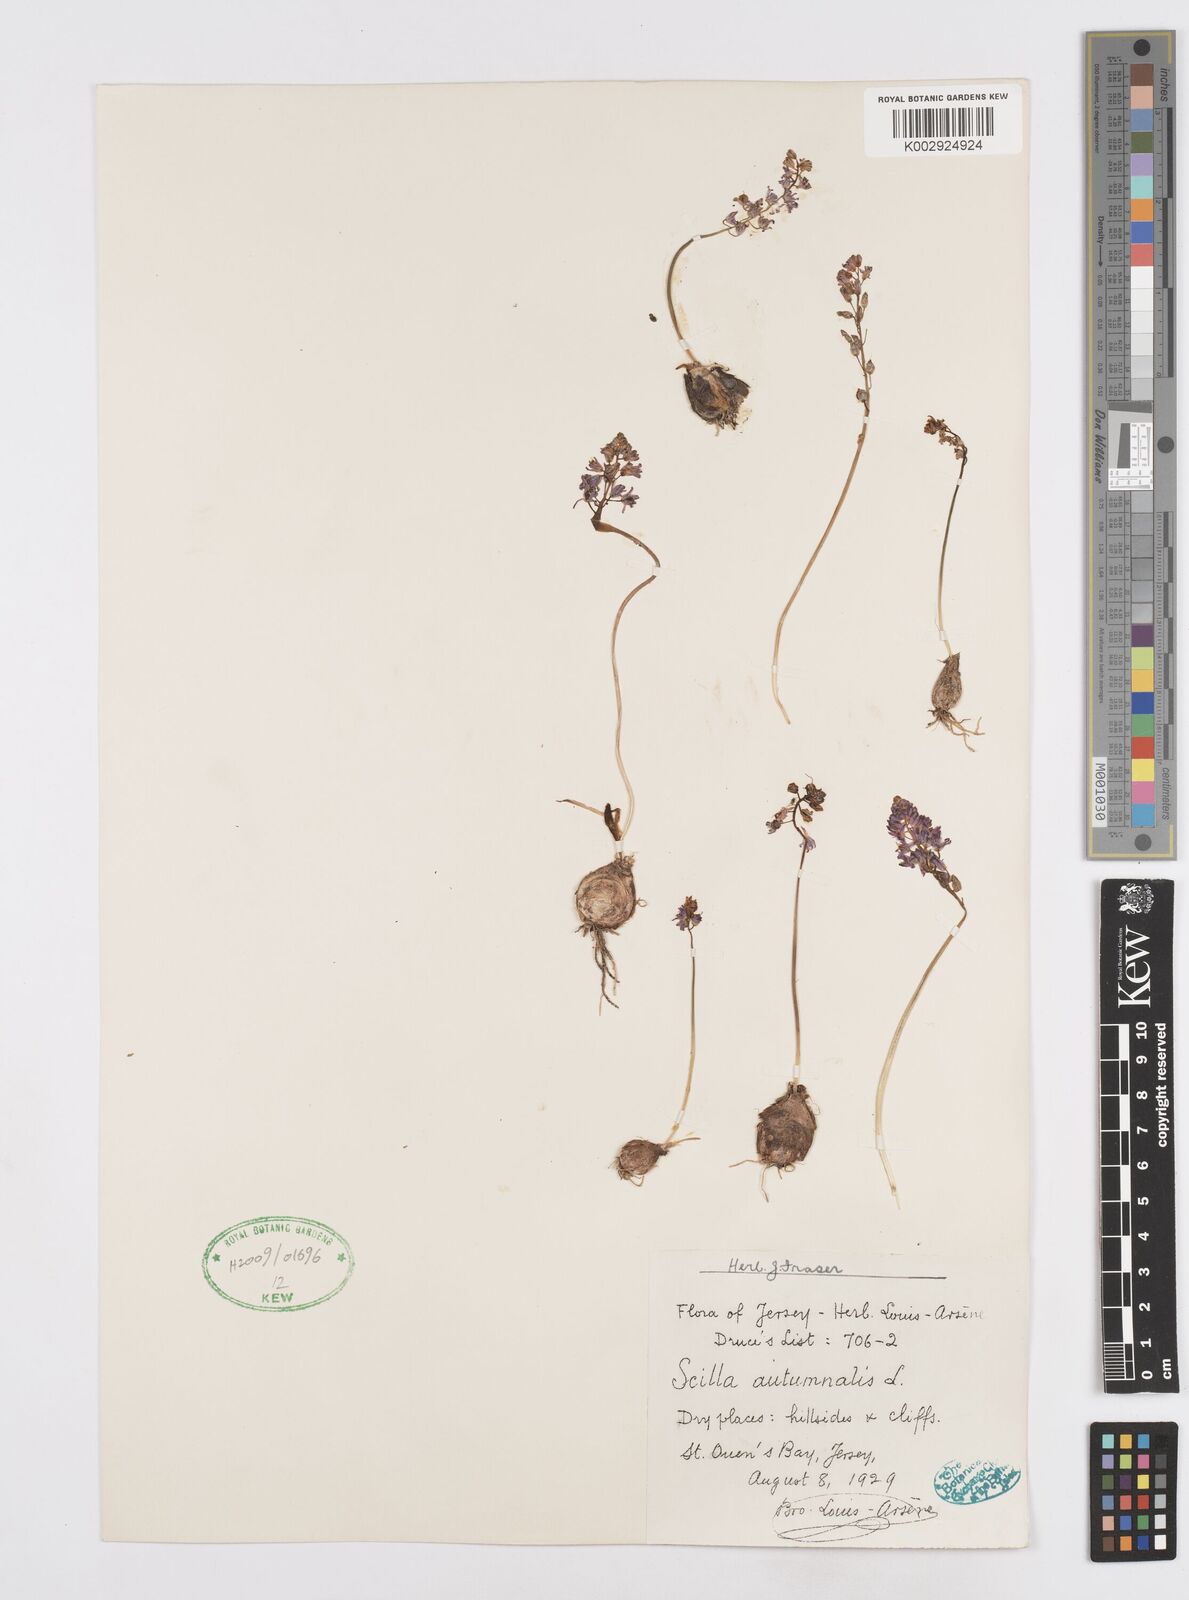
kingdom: Plantae
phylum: Tracheophyta
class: Liliopsida
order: Asparagales
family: Asparagaceae
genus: Prospero
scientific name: Prospero autumnale
